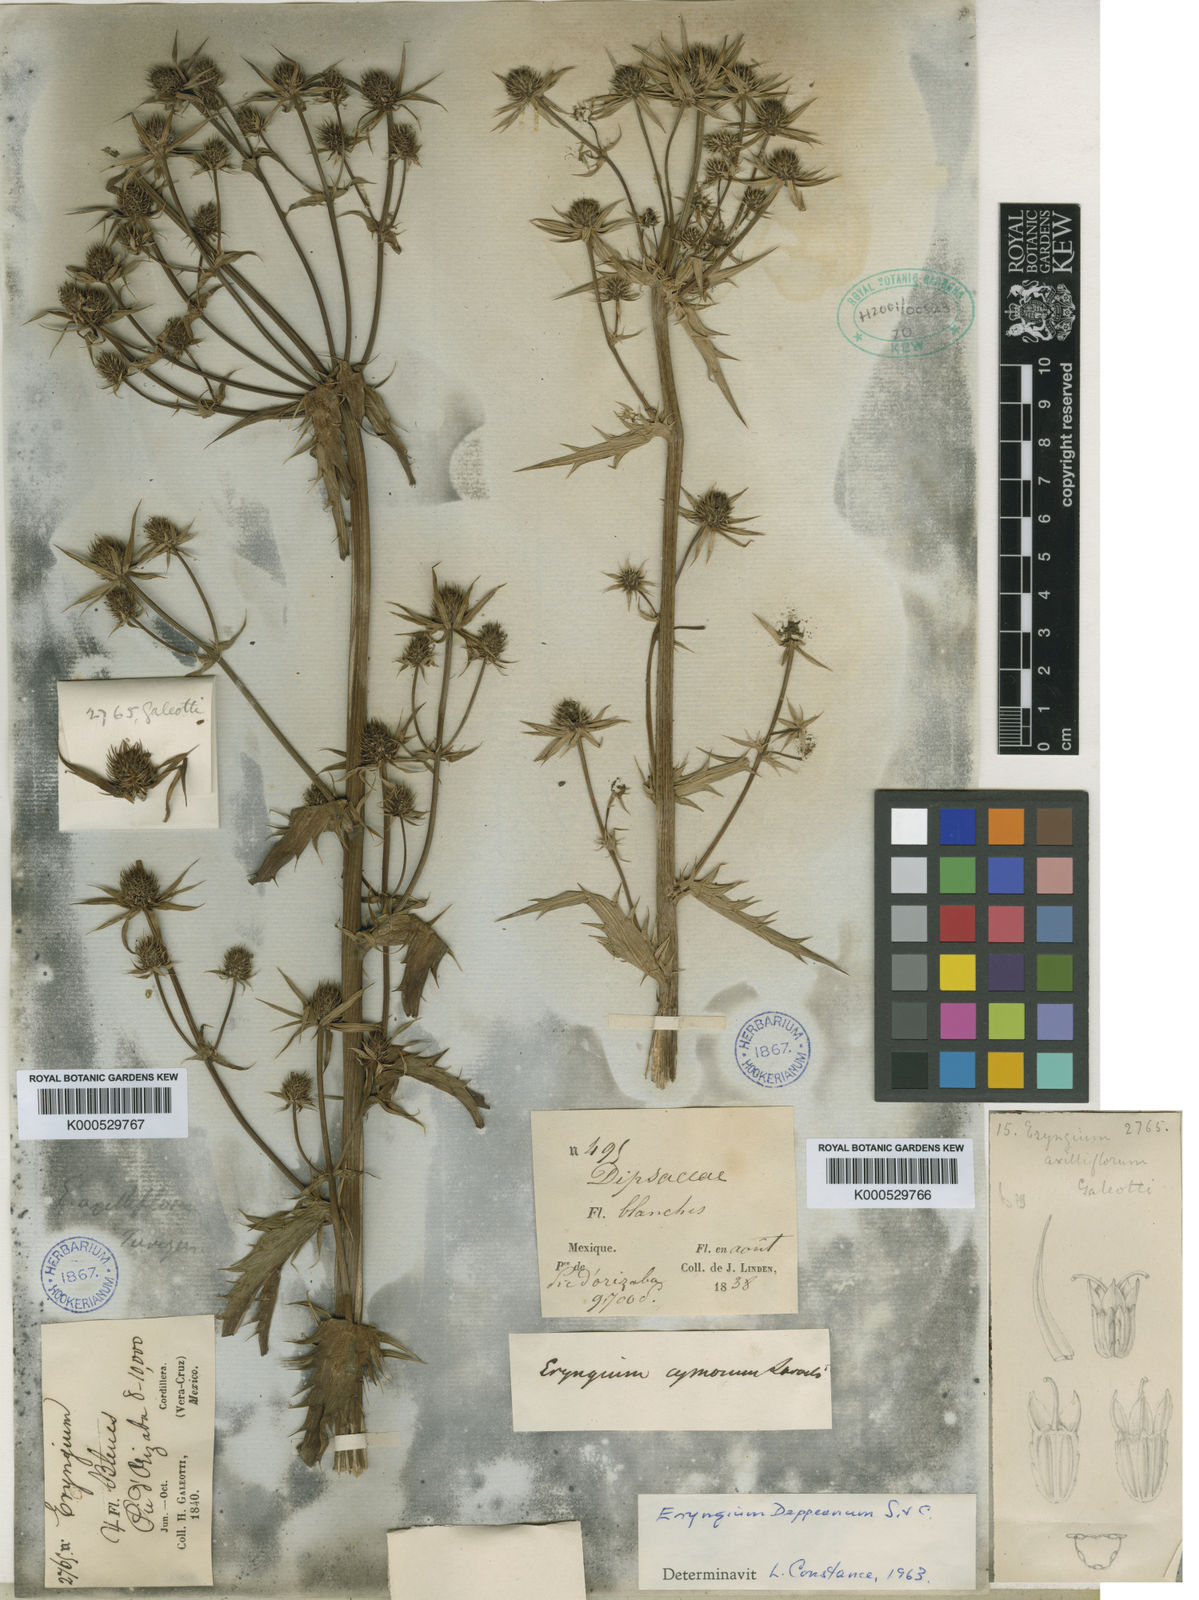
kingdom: Plantae
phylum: Tracheophyta
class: Magnoliopsida
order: Apiales
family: Apiaceae
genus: Eryngium
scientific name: Eryngium monocephalum
